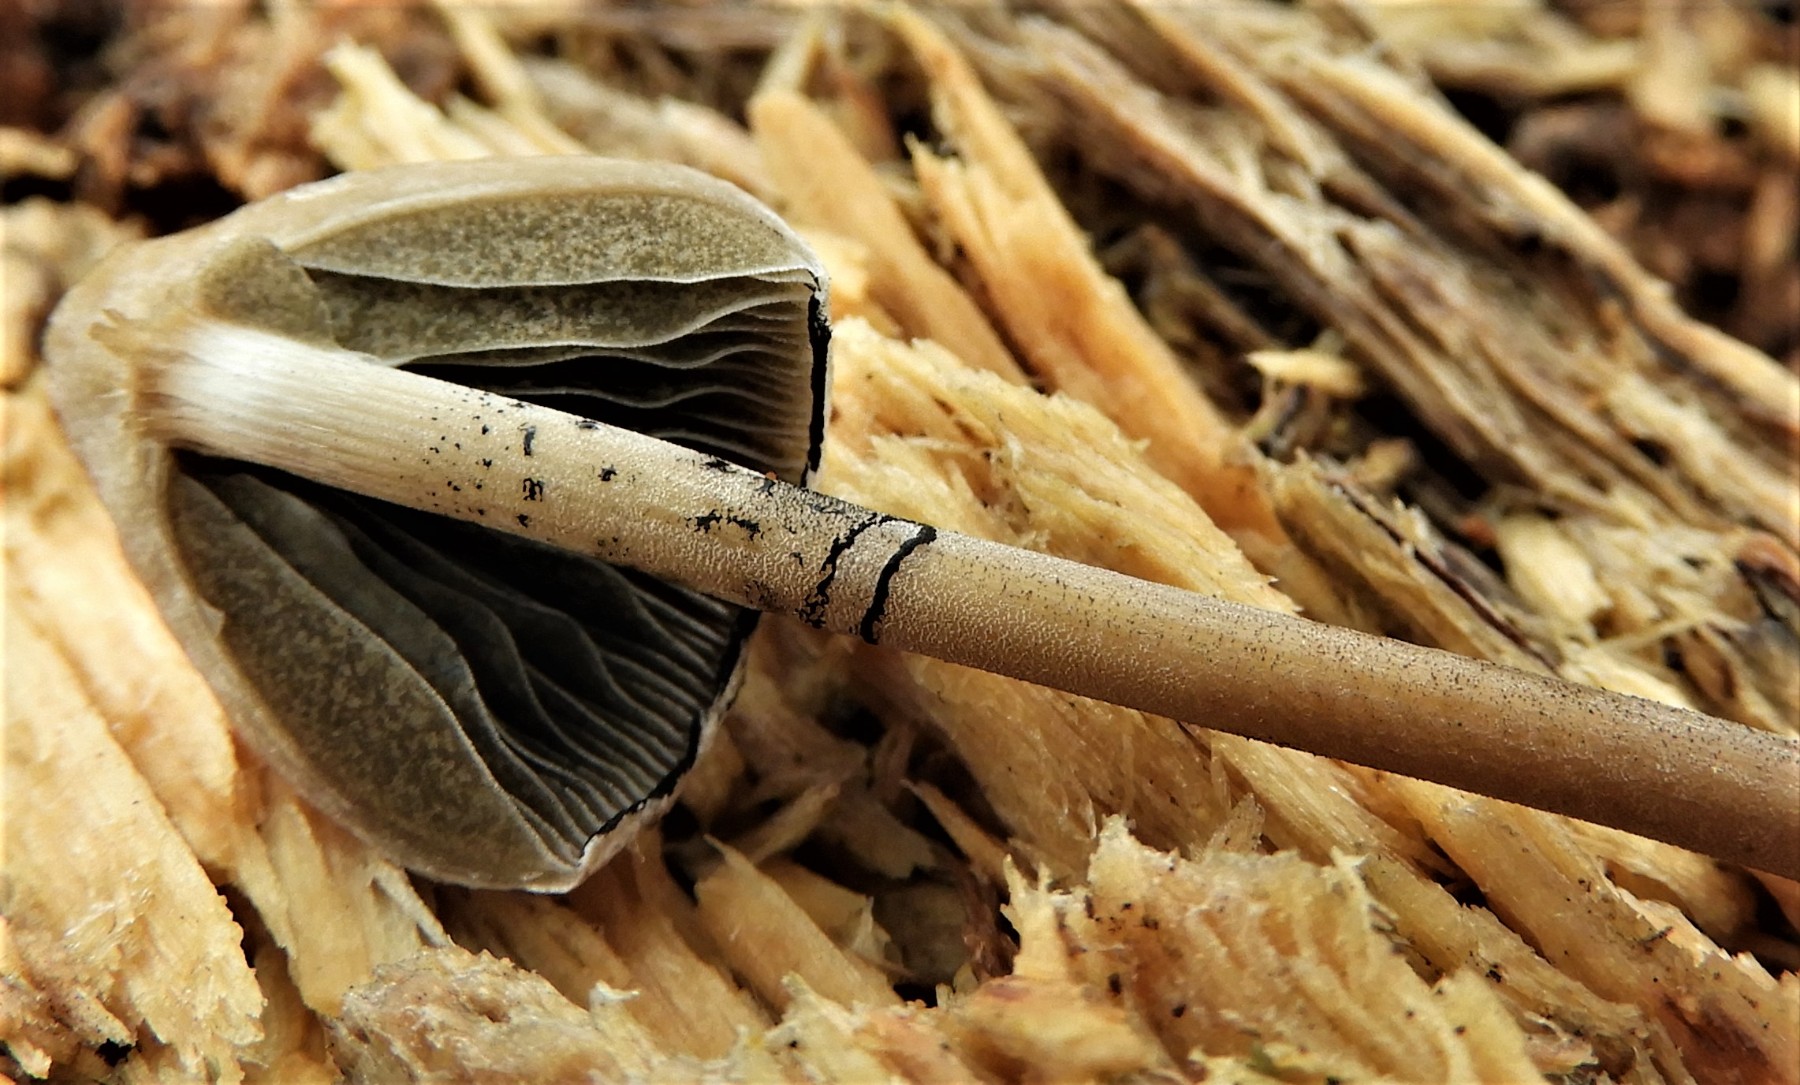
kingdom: Fungi
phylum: Basidiomycota
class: Agaricomycetes
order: Agaricales
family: Bolbitiaceae
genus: Panaeolus
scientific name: Panaeolus papilionaceus
